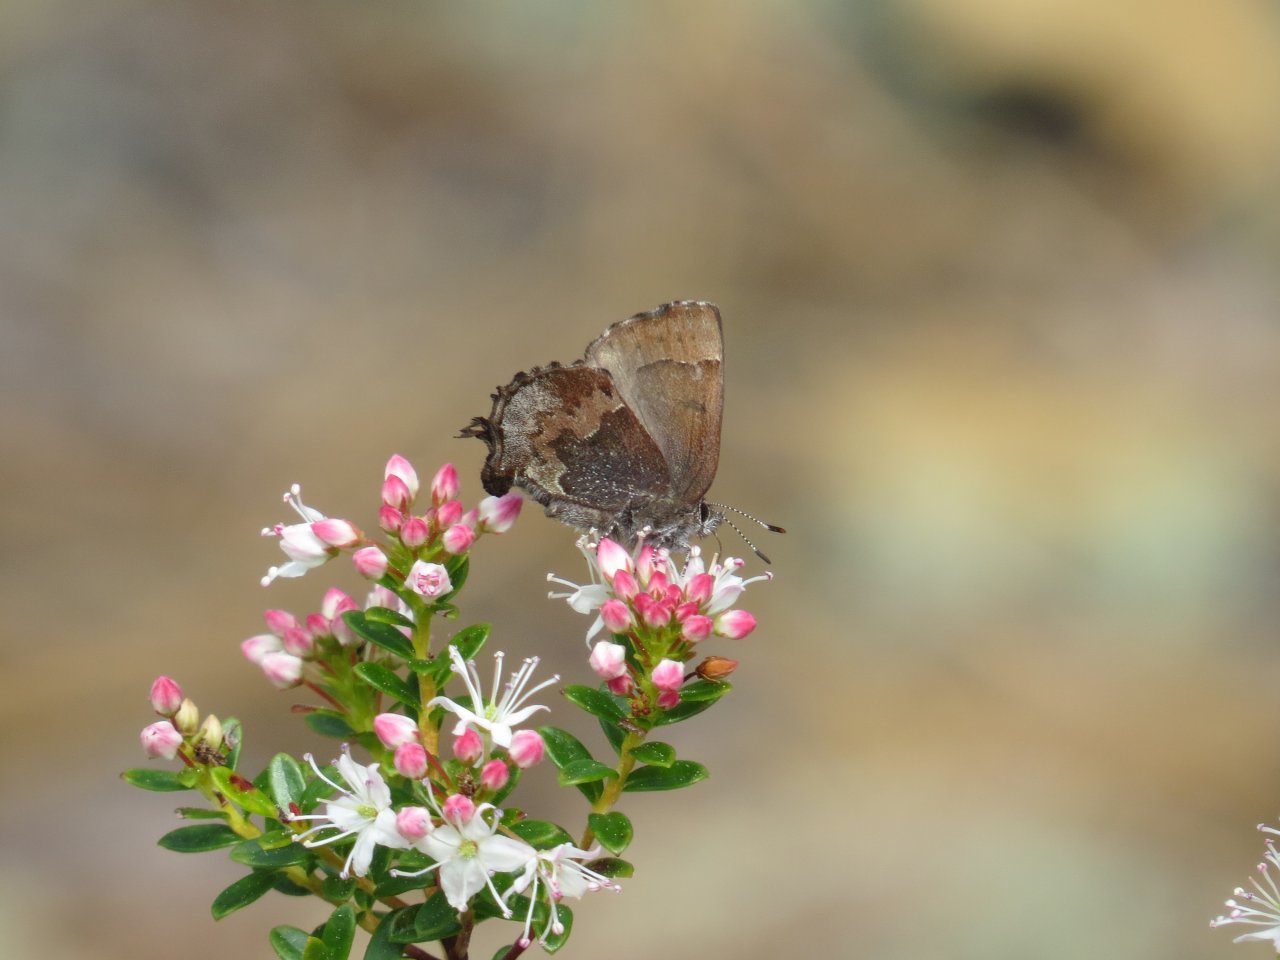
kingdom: Animalia
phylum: Arthropoda
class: Insecta
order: Lepidoptera
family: Lycaenidae
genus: Incisalia
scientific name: Incisalia henrici
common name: Henry's Elfin
